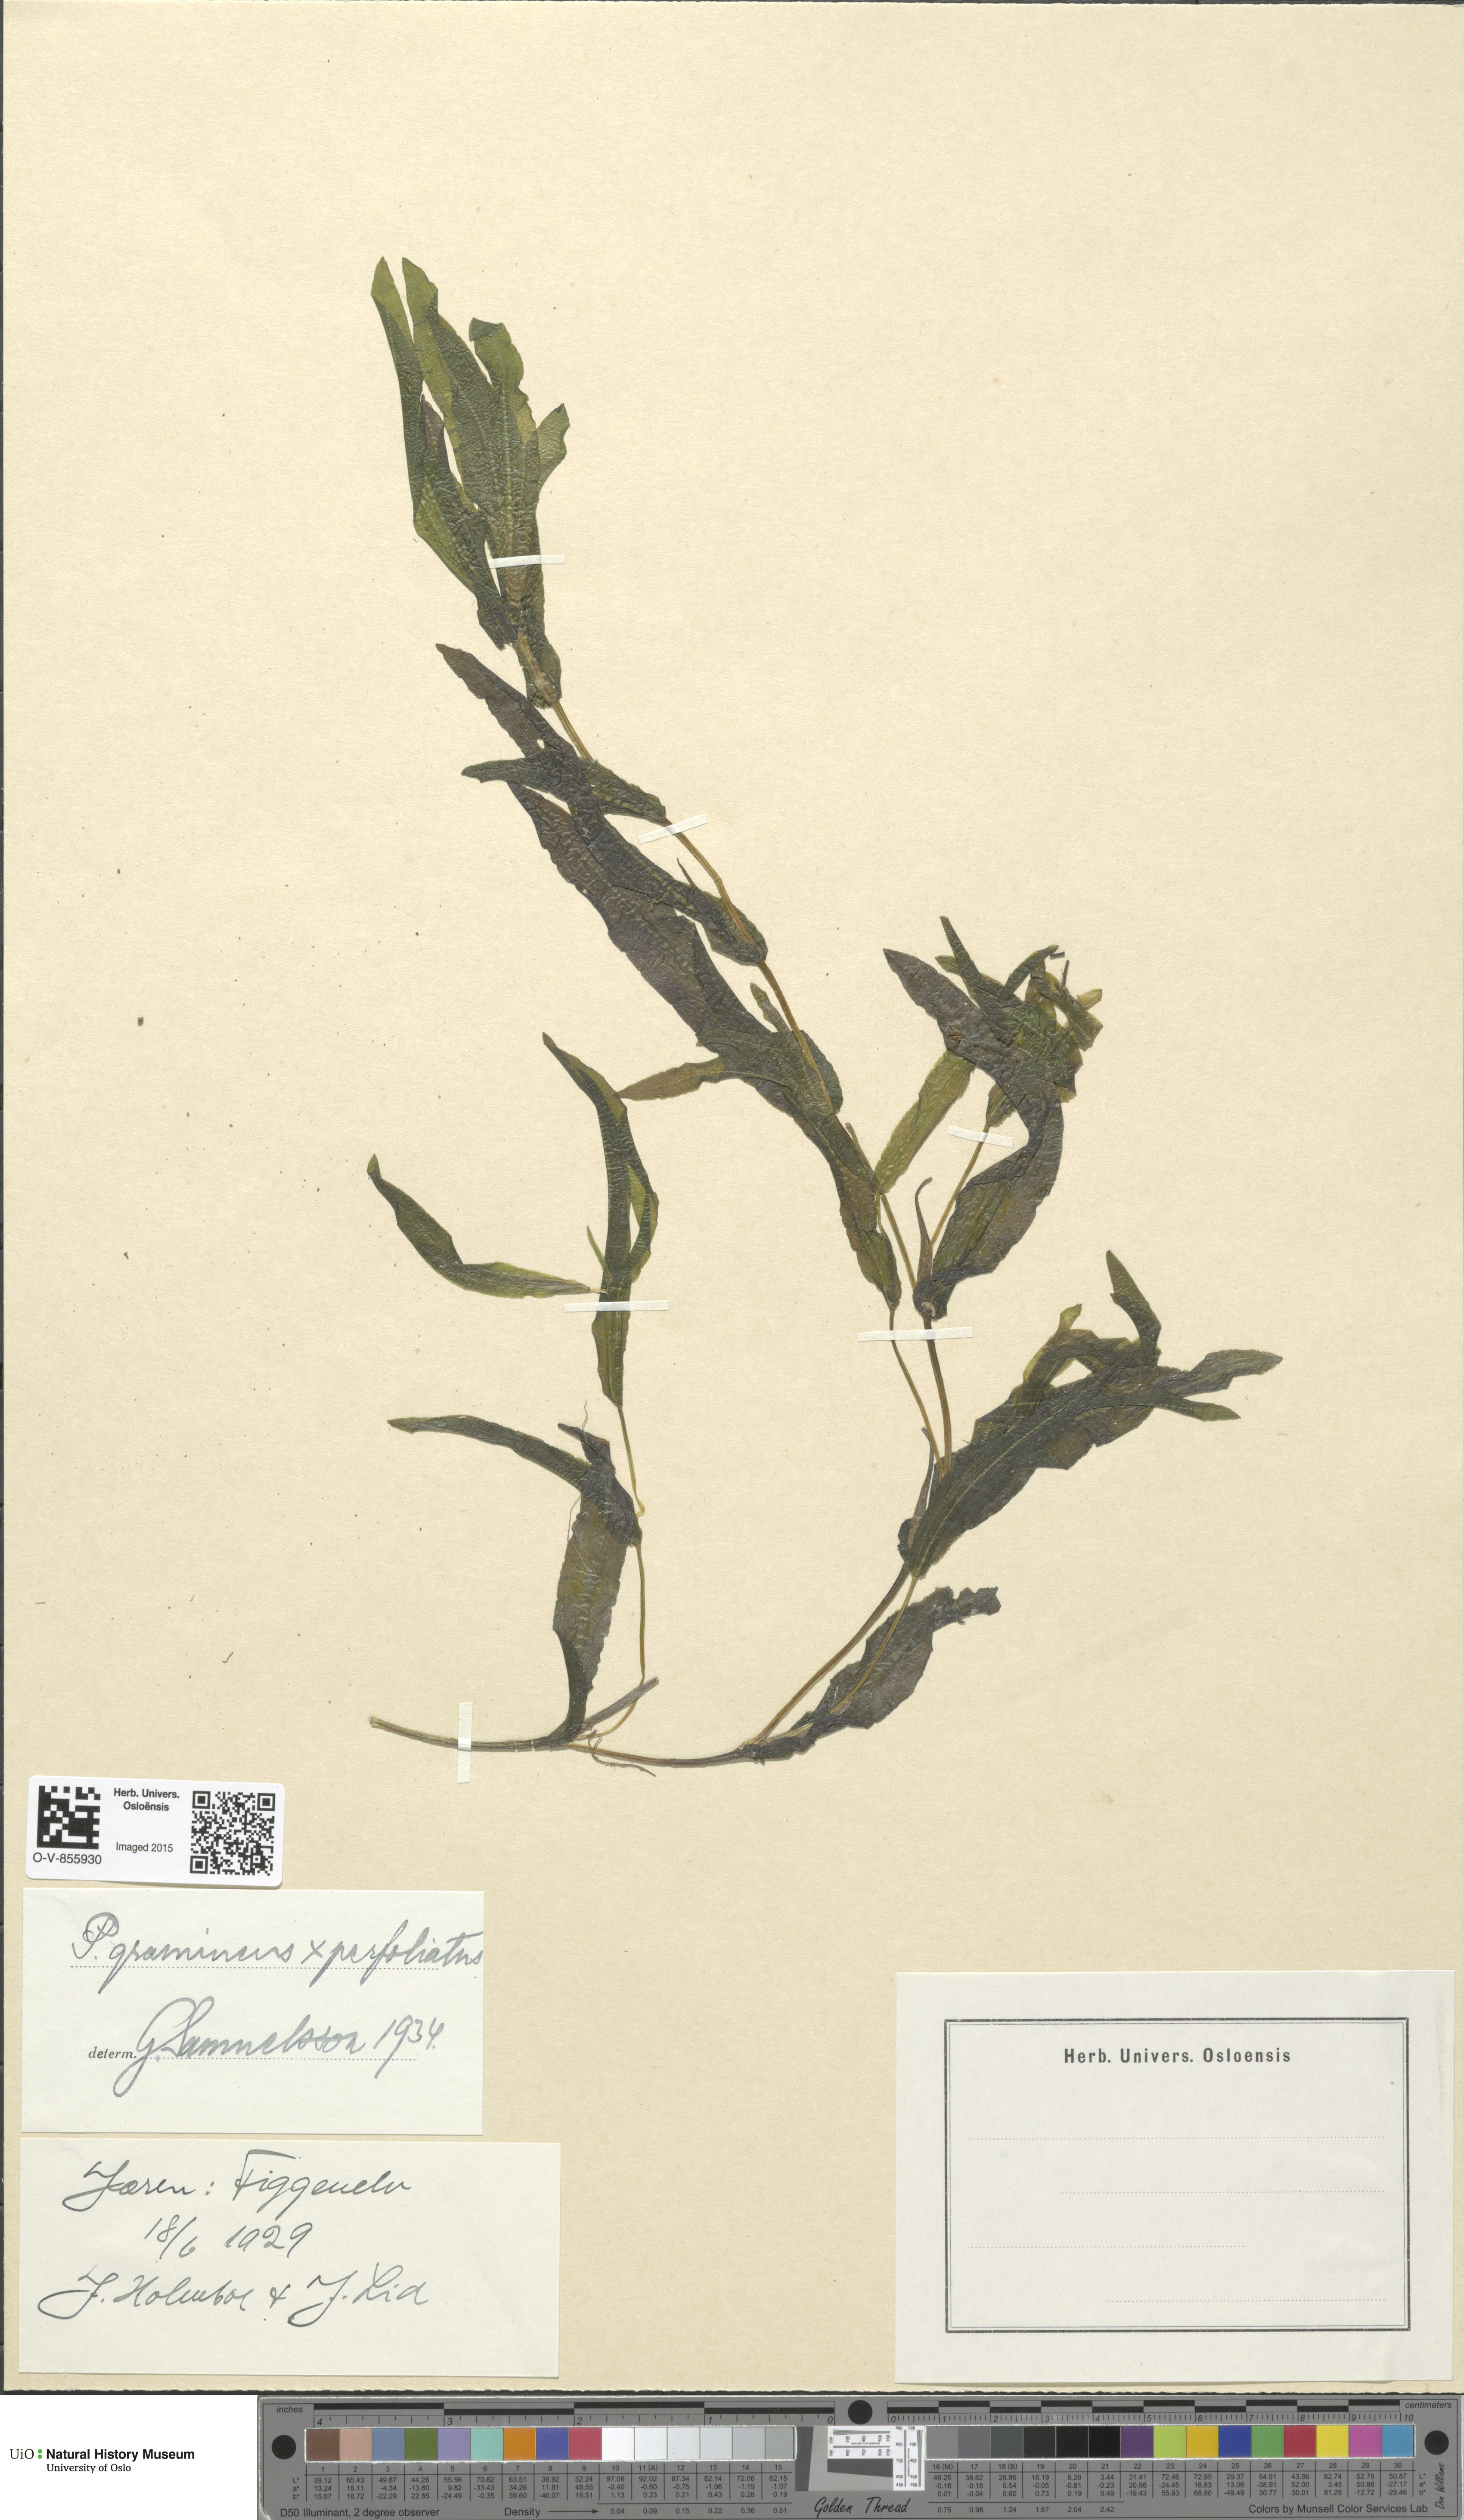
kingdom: Plantae
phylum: Tracheophyta
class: Liliopsida
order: Alismatales
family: Potamogetonaceae
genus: Potamogeton
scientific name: Potamogeton nitens
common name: Pondweed
